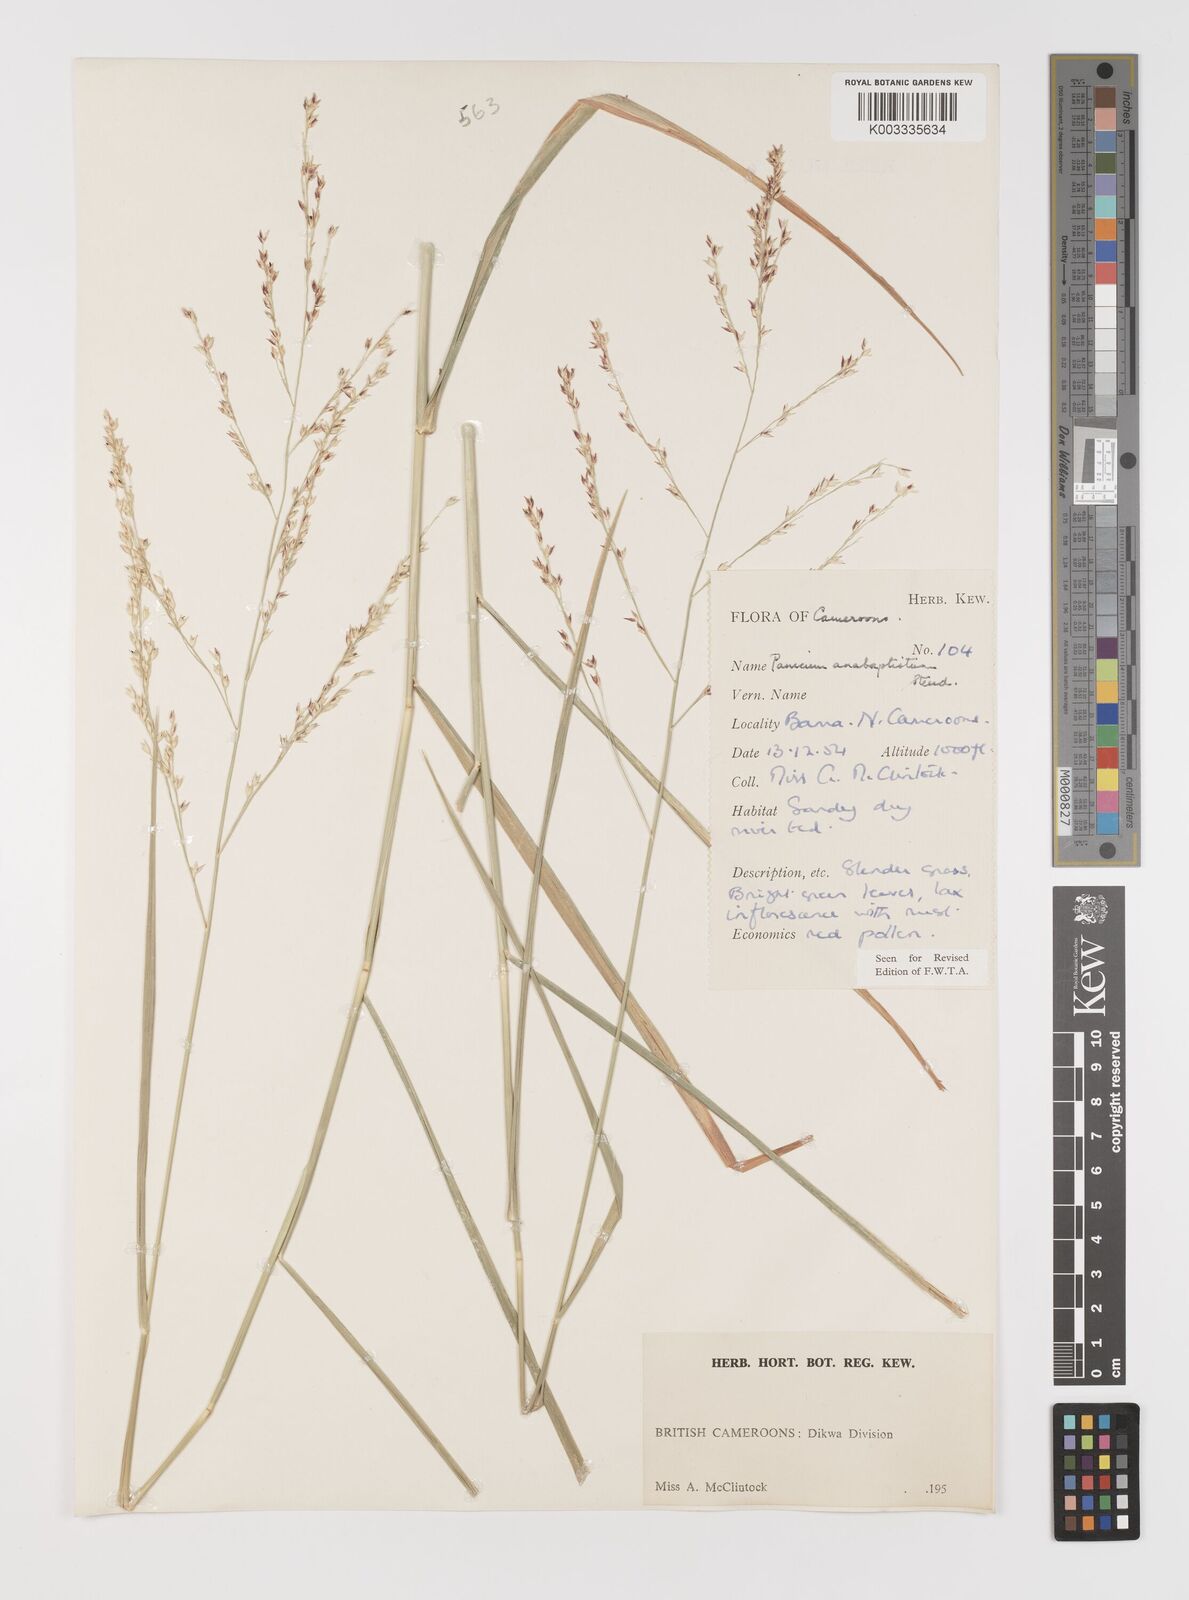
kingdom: Plantae
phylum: Tracheophyta
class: Liliopsida
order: Poales
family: Poaceae
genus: Panicum
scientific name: Panicum anabaptistum
